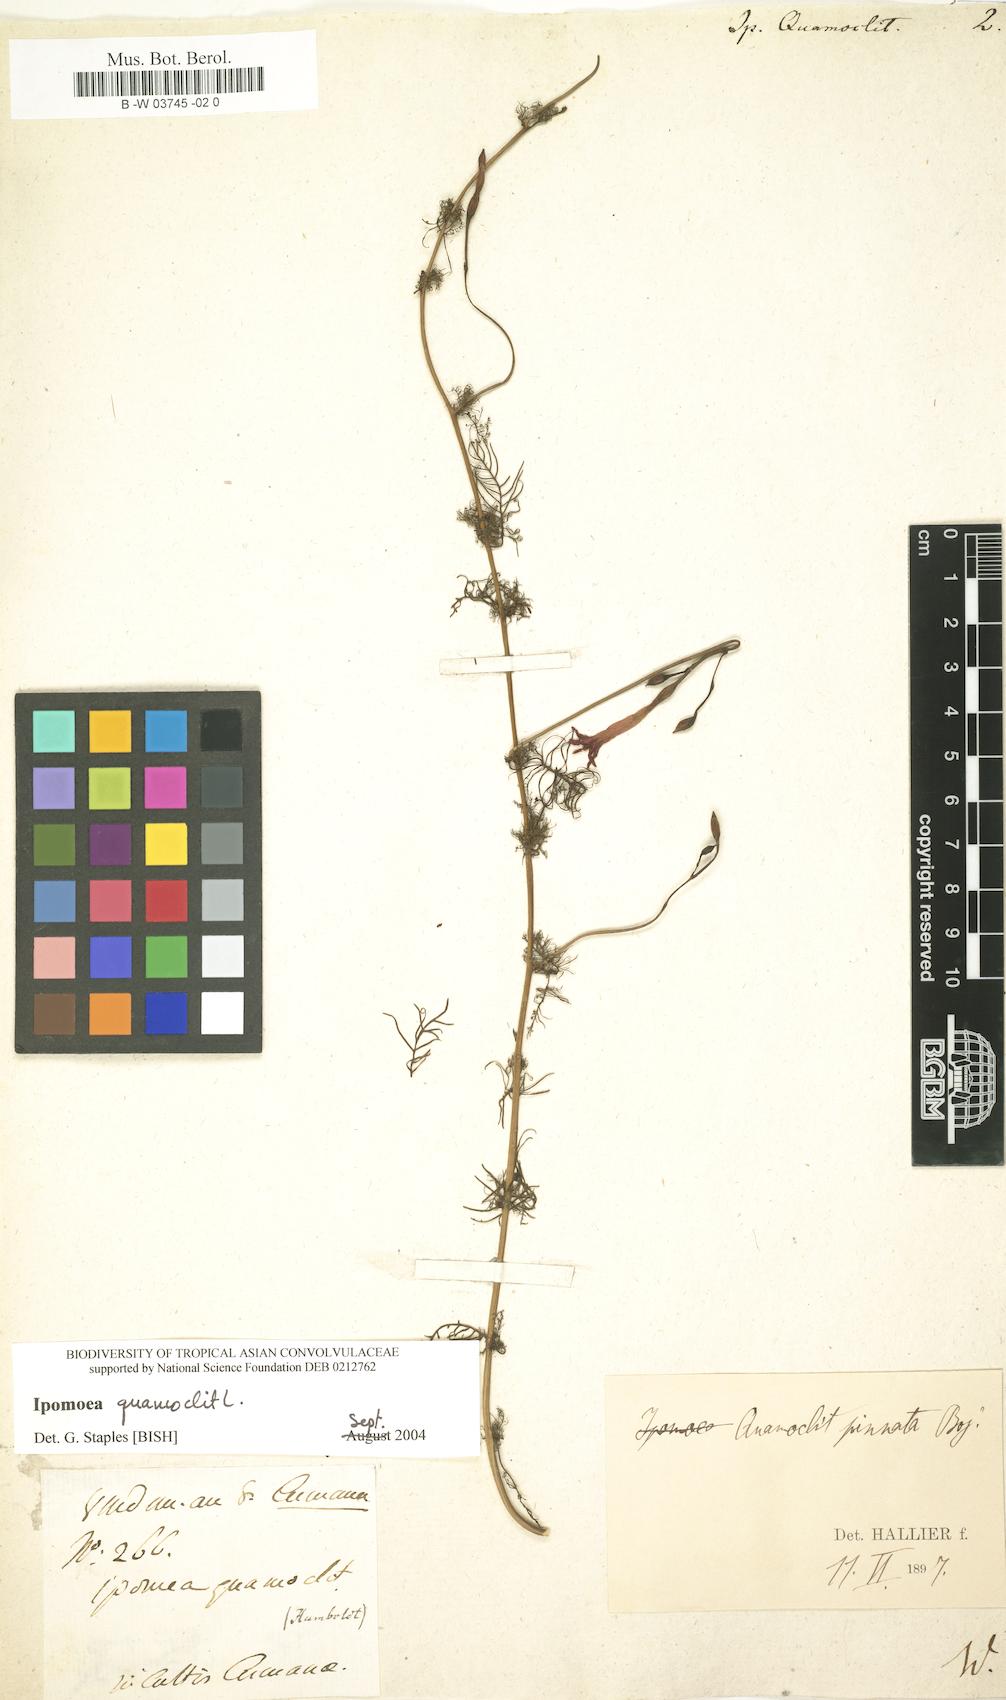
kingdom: Plantae
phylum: Tracheophyta
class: Magnoliopsida
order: Solanales
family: Convolvulaceae
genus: Ipomoea
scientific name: Ipomoea quamoclit
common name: Cypress vine
